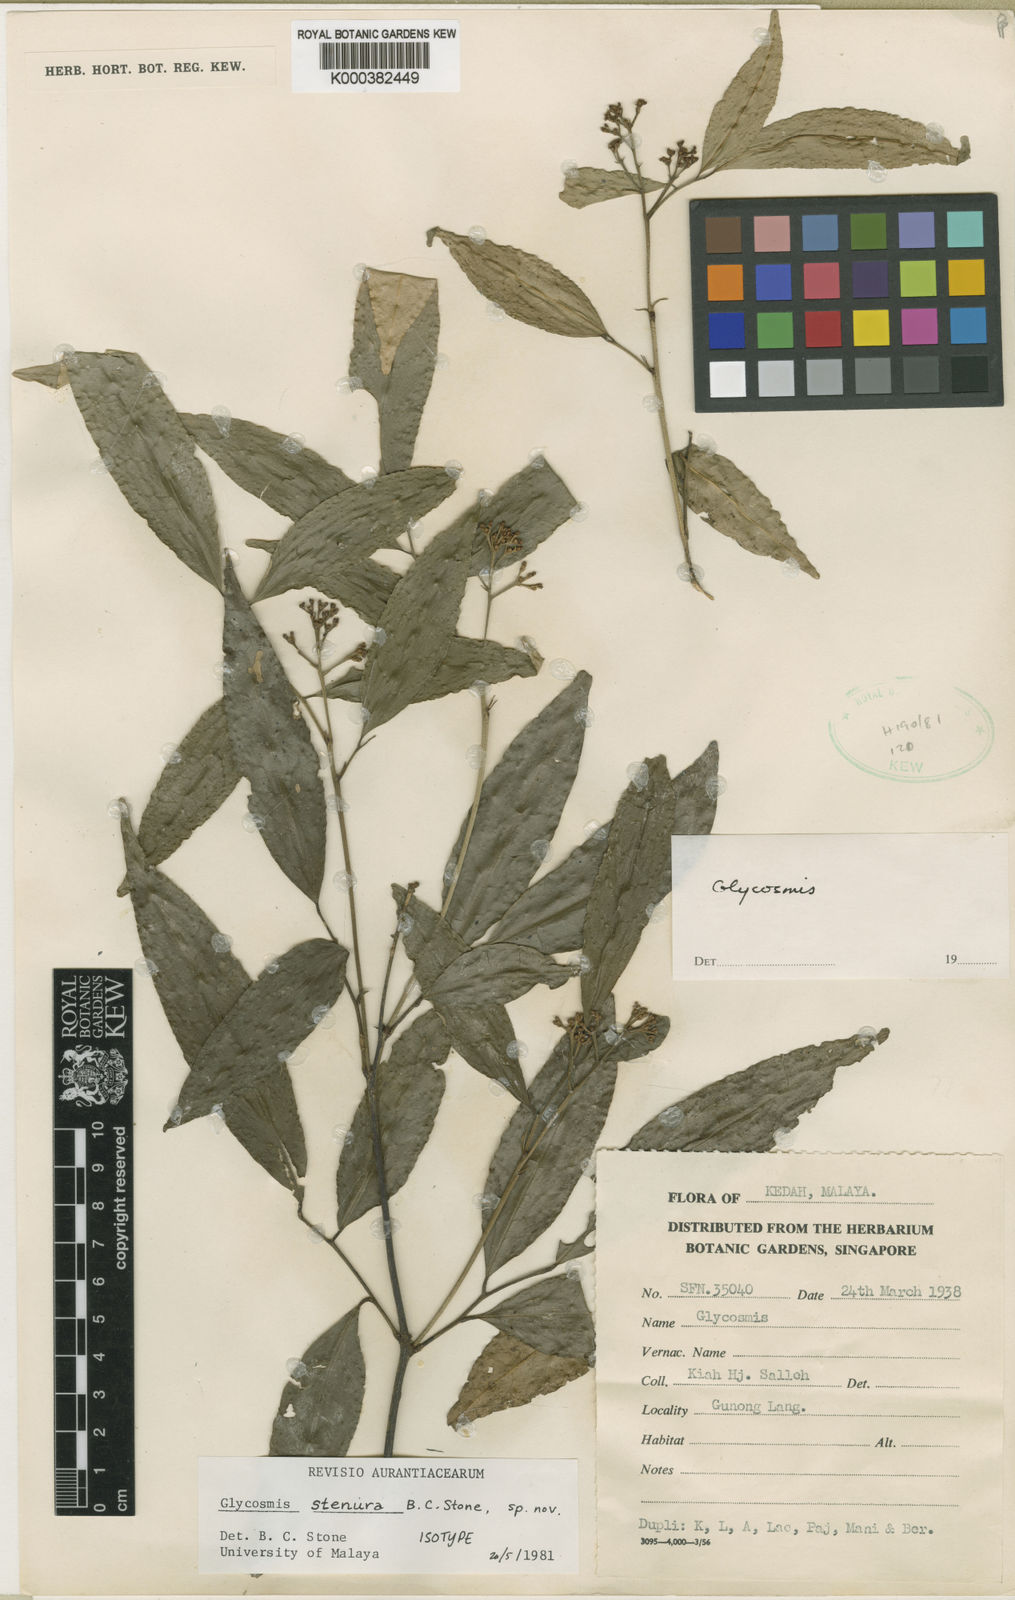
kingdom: Plantae
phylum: Tracheophyta
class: Magnoliopsida
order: Sapindales
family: Rutaceae
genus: Glycosmis
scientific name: Glycosmis stenura
